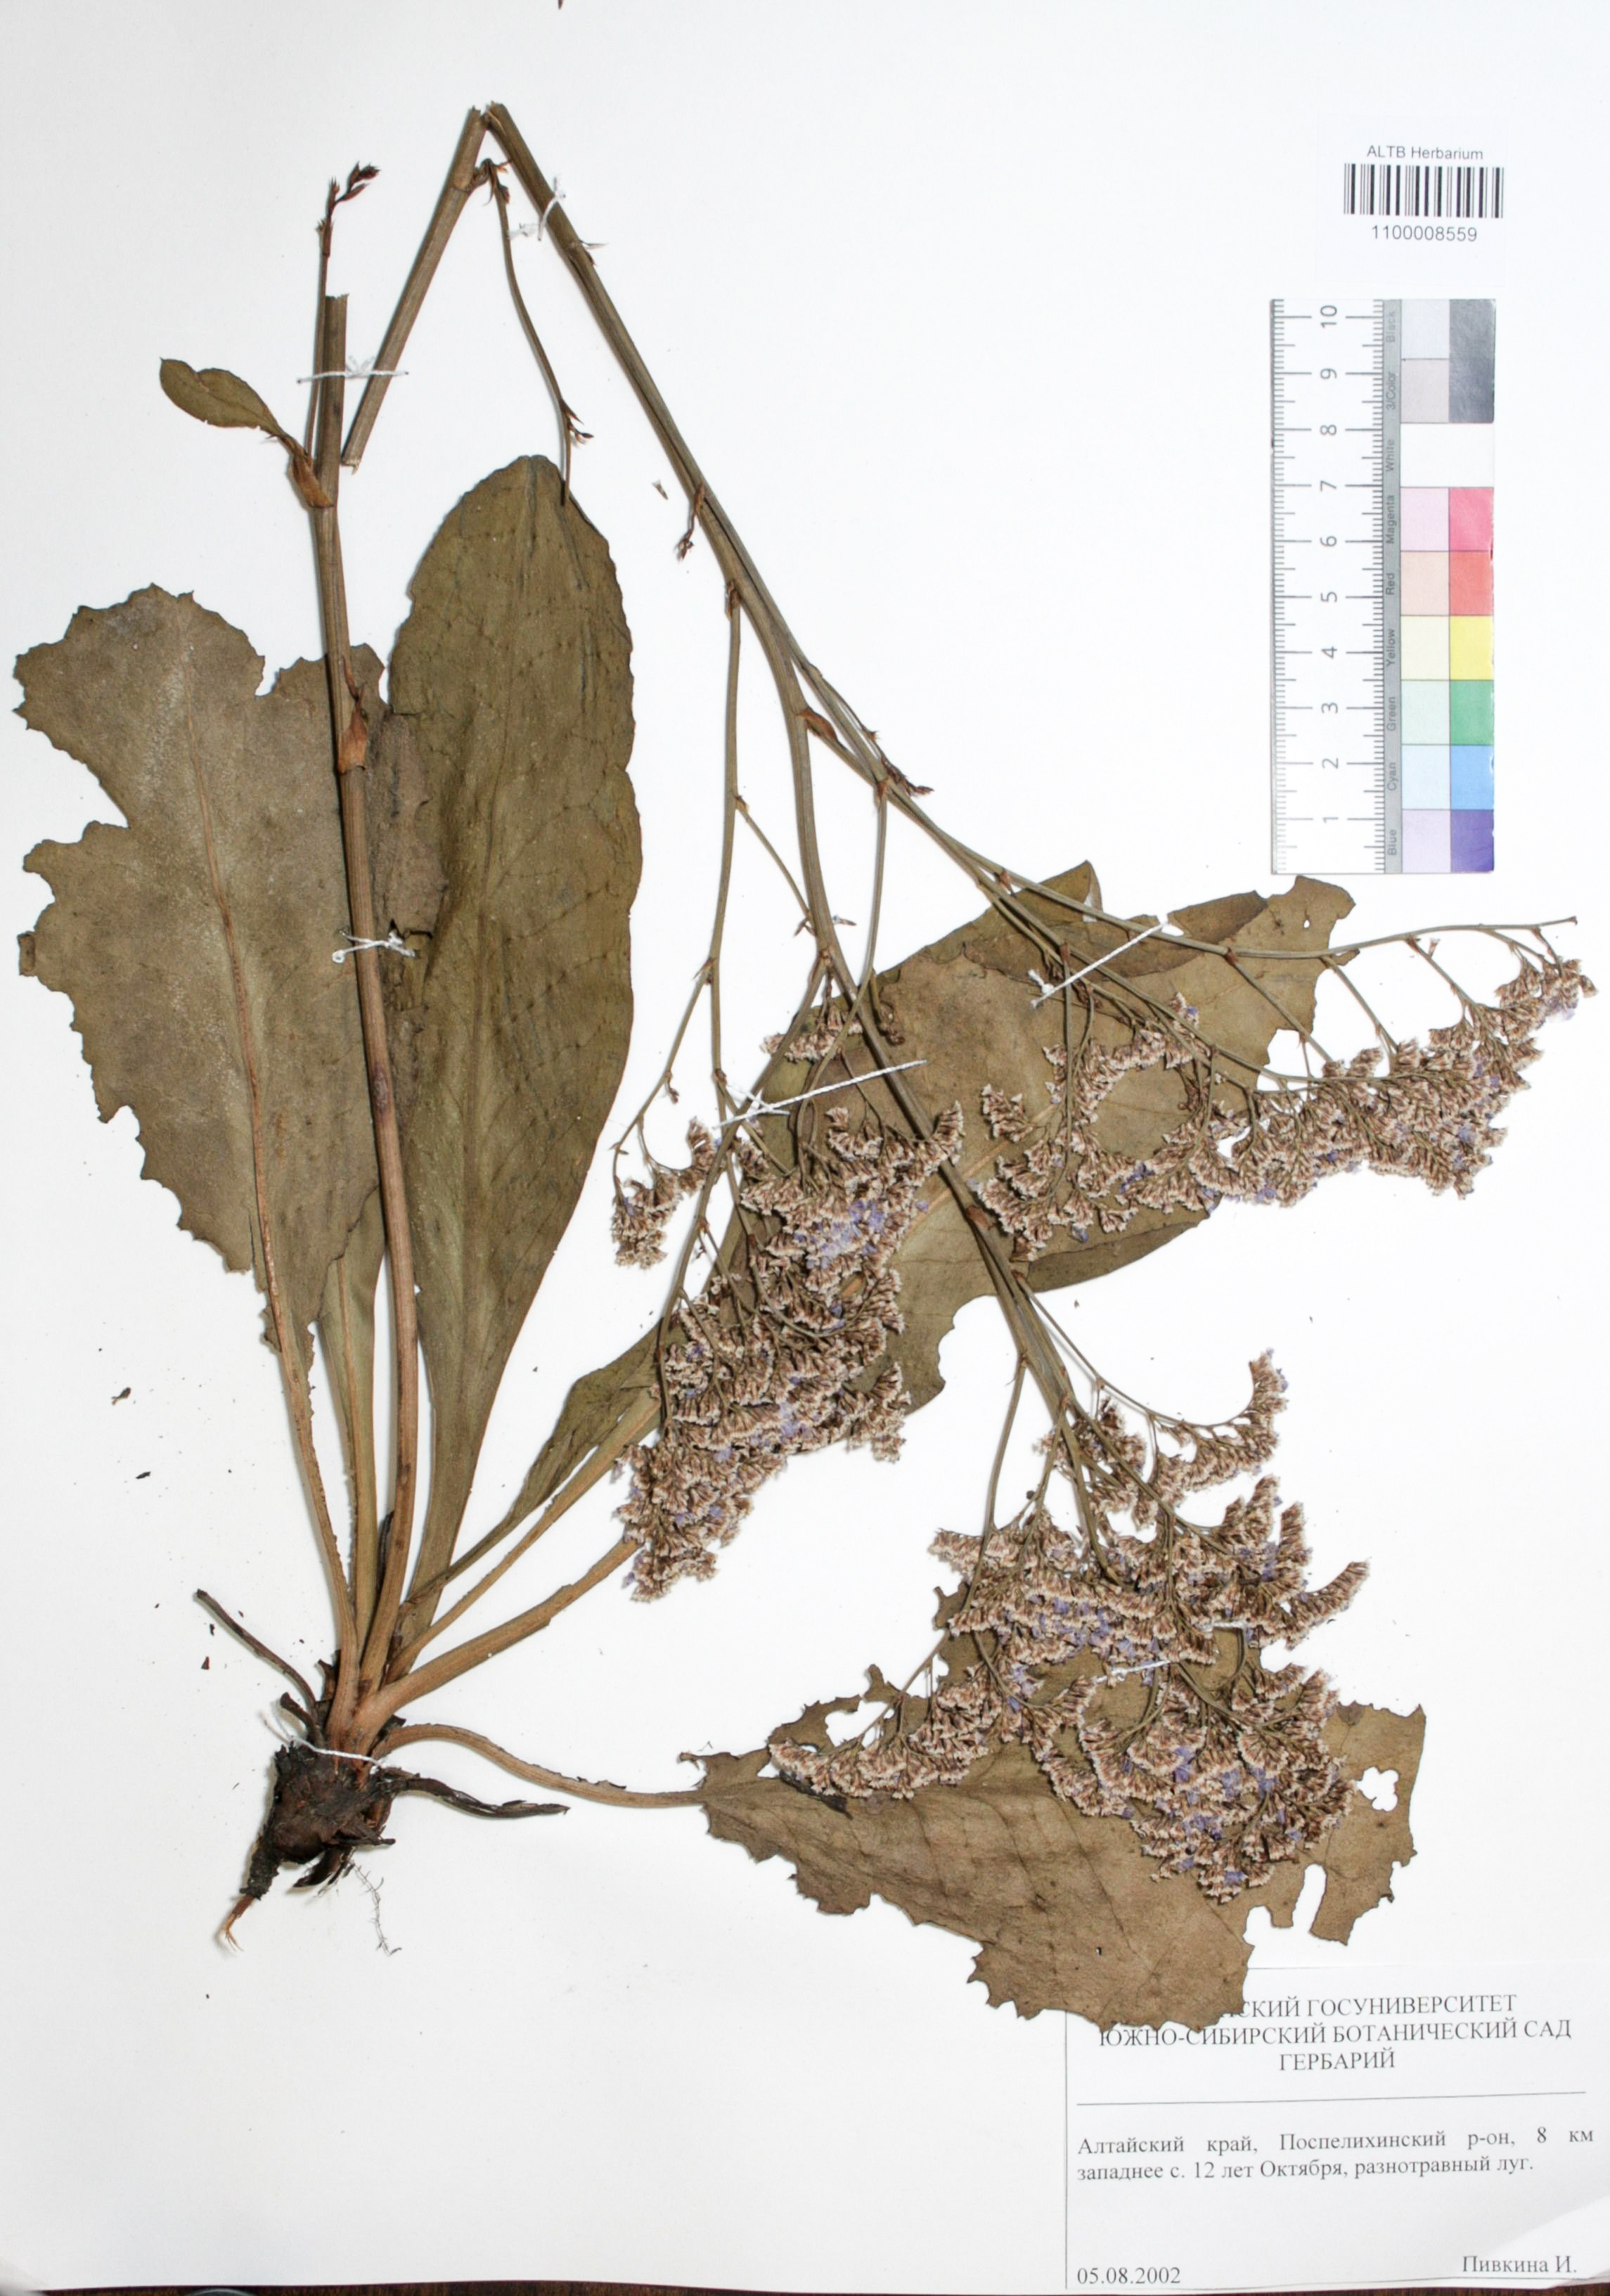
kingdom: Plantae
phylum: Tracheophyta
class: Magnoliopsida
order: Caryophyllales
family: Plumbaginaceae
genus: Goniolimon
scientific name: Goniolimon speciosum
